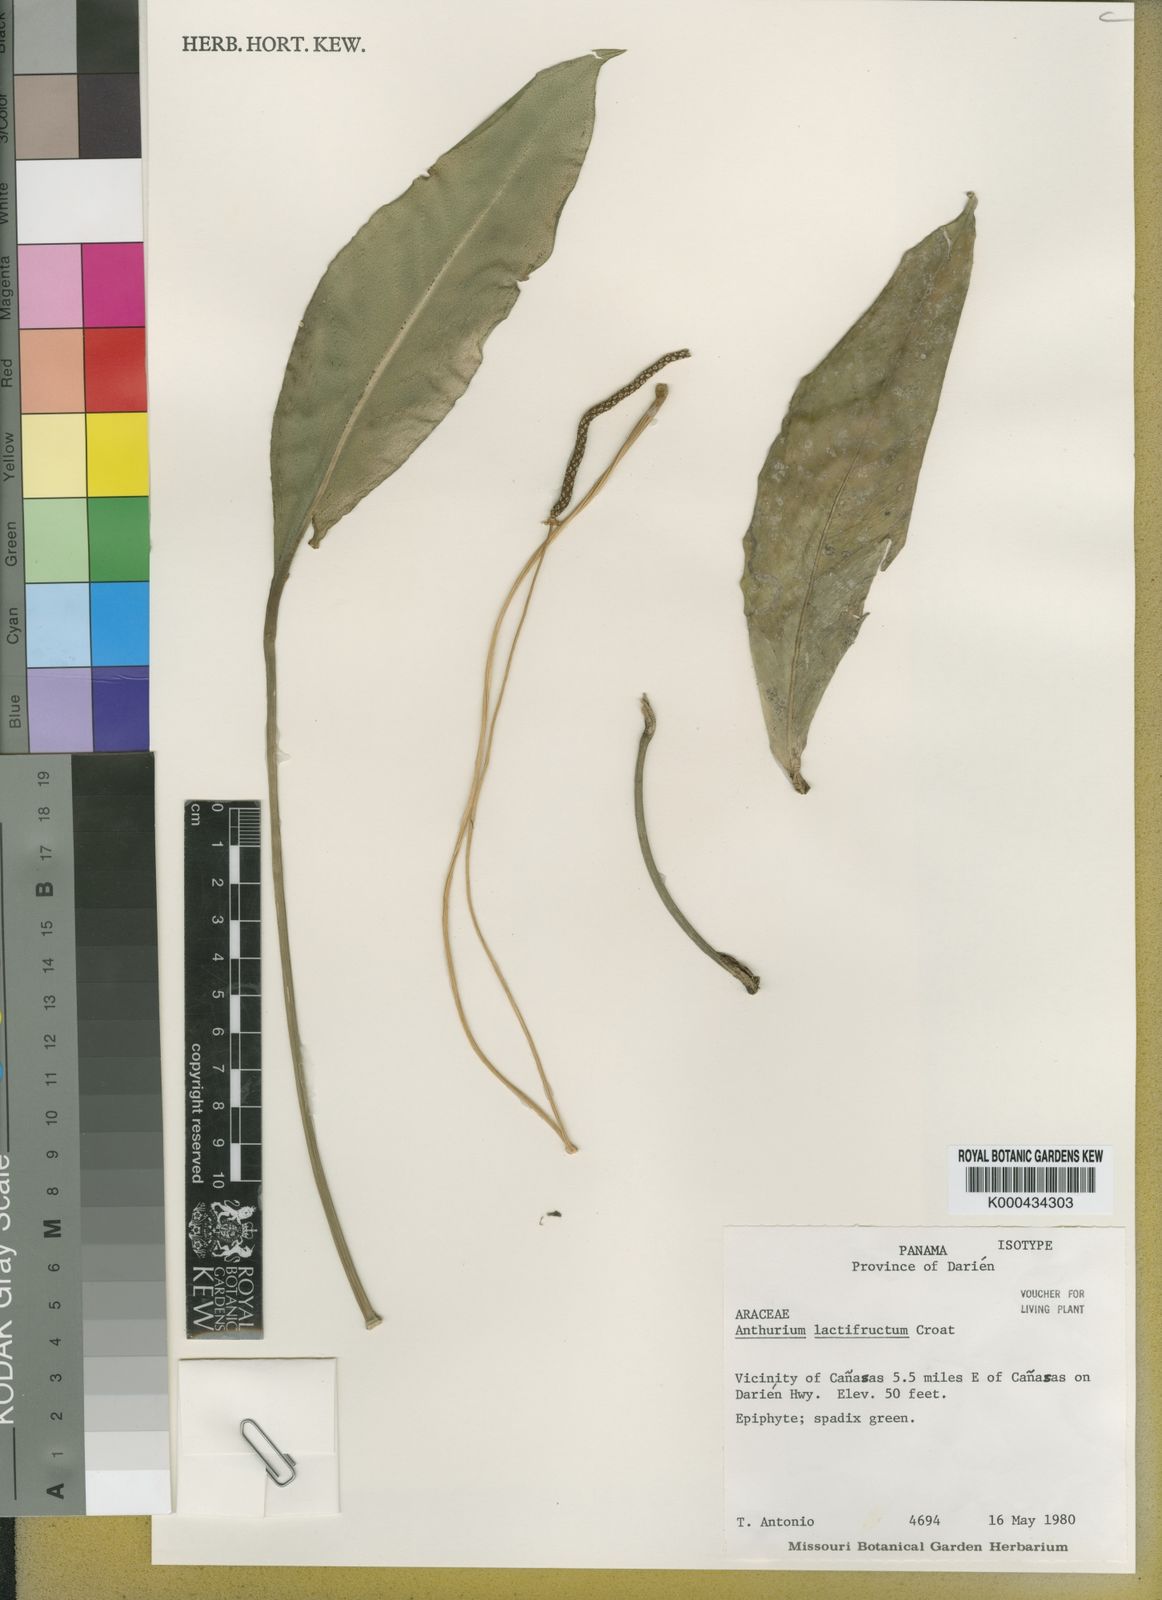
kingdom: Plantae
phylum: Tracheophyta
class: Liliopsida
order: Alismatales
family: Araceae
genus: Anthurium
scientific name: Anthurium lactifructum
